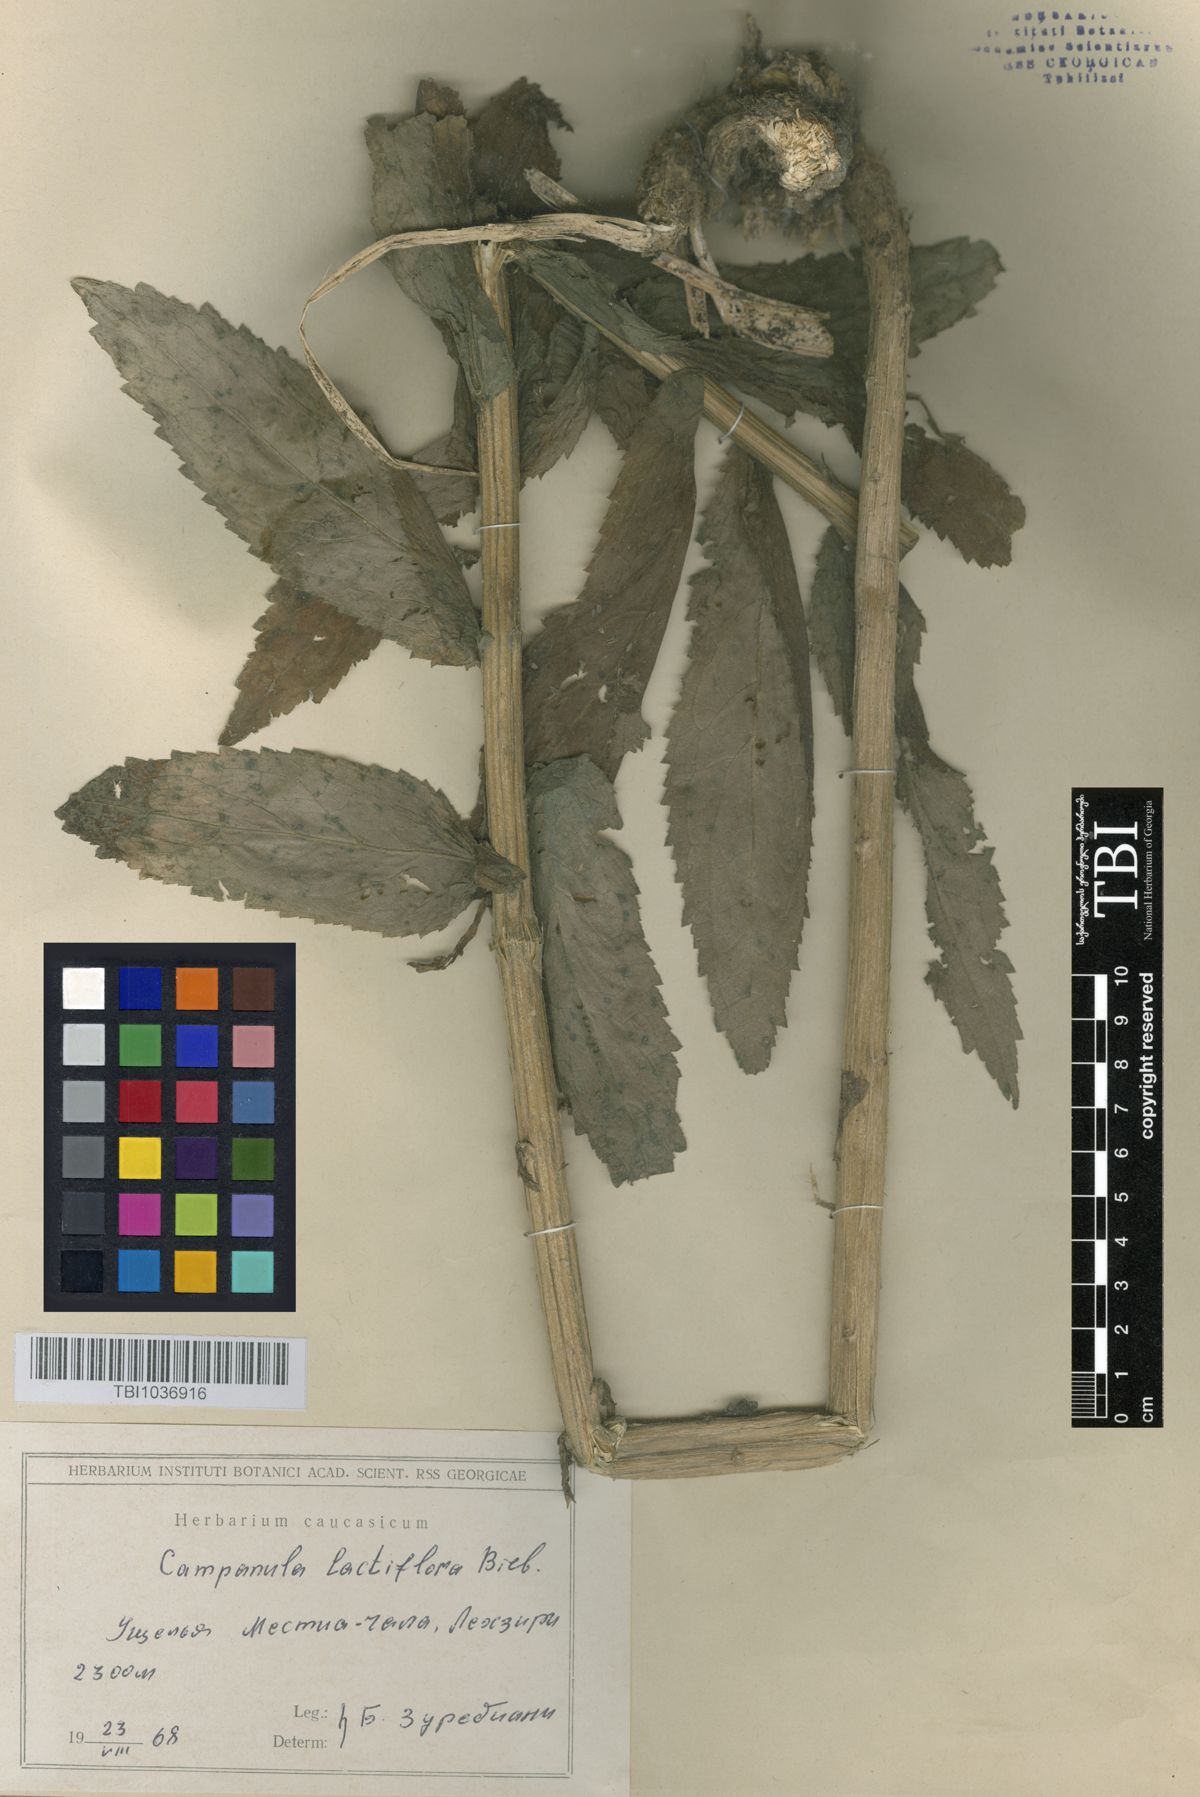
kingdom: Plantae
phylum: Tracheophyta
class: Magnoliopsida
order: Asterales
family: Campanulaceae
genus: Campanula
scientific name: Campanula lactiflora
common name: Milky bellflower
